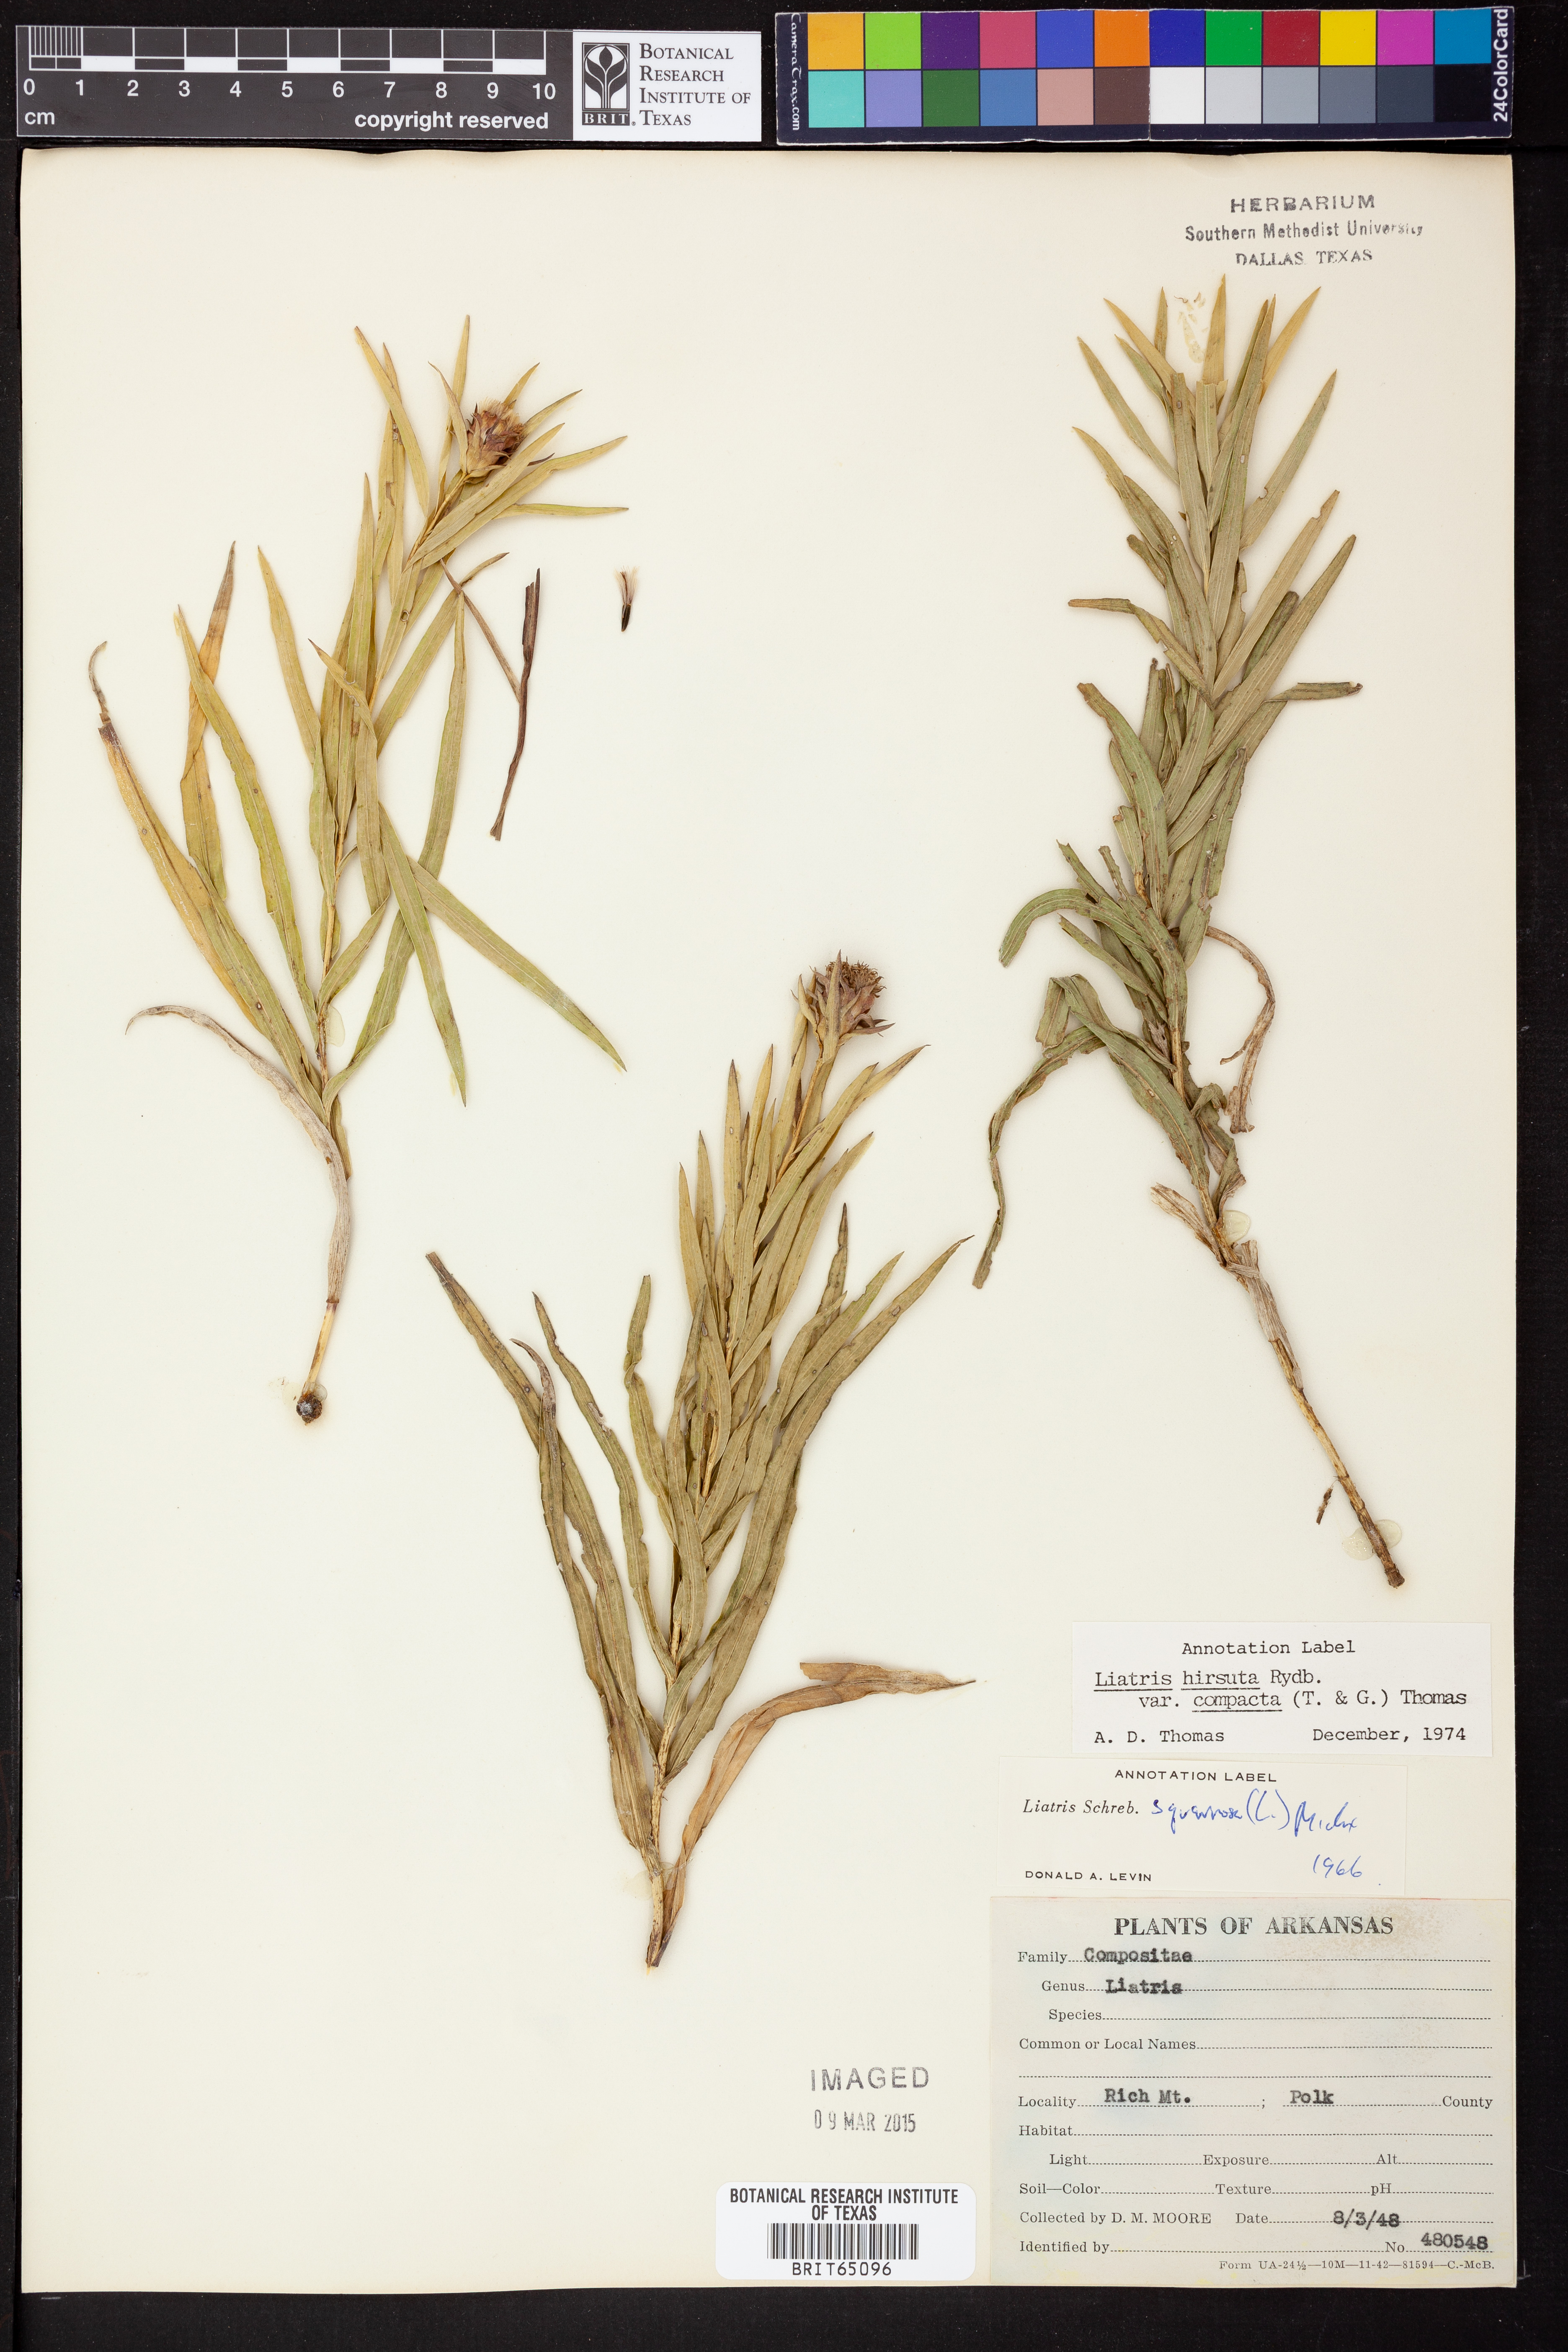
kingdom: Plantae
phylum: Tracheophyta
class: Magnoliopsida
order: Asterales
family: Asteraceae
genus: Liatris
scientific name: Liatris compacta
